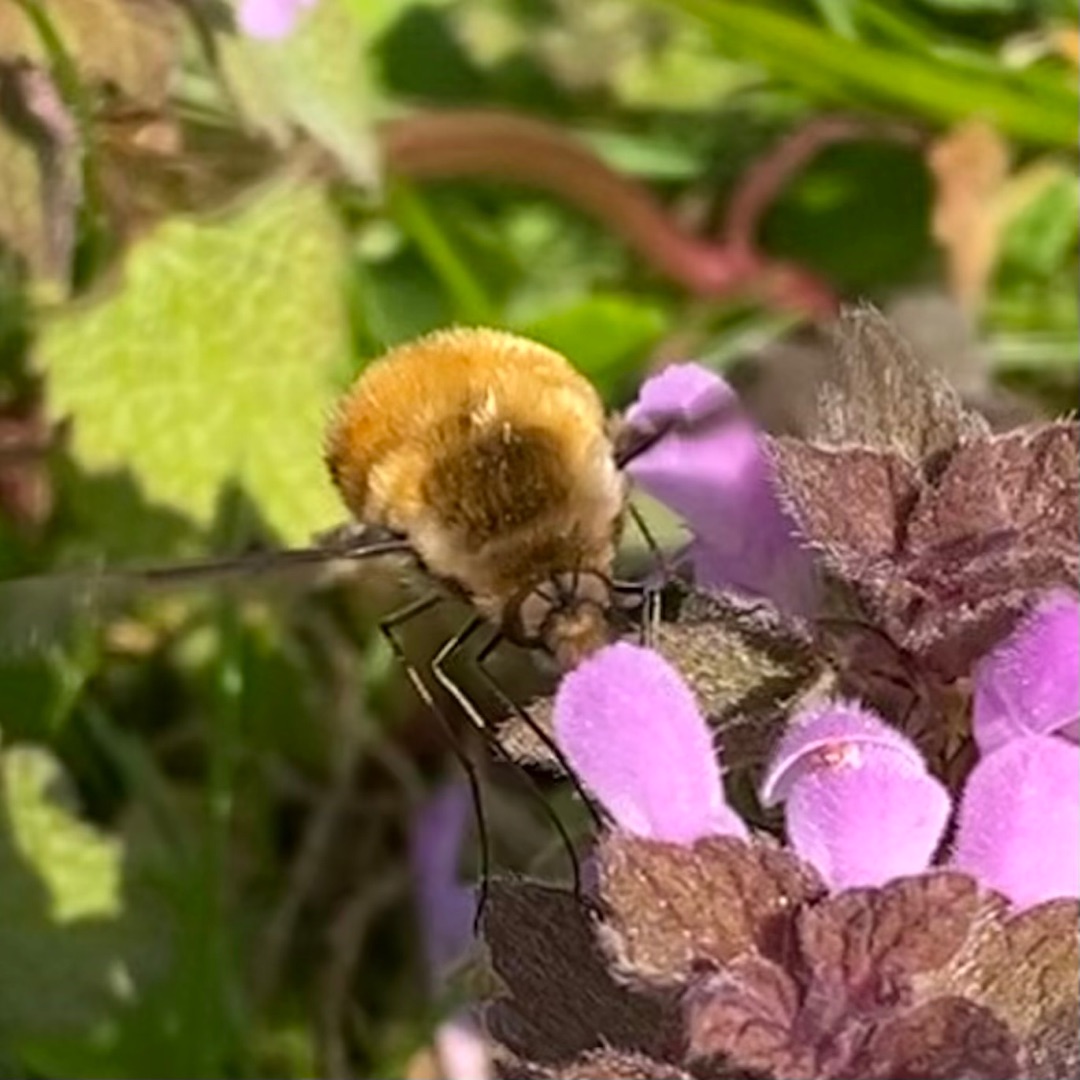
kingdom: Animalia
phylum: Arthropoda
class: Insecta
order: Diptera
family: Bombyliidae
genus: Bombylius
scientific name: Bombylius major
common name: Stor humleflue
